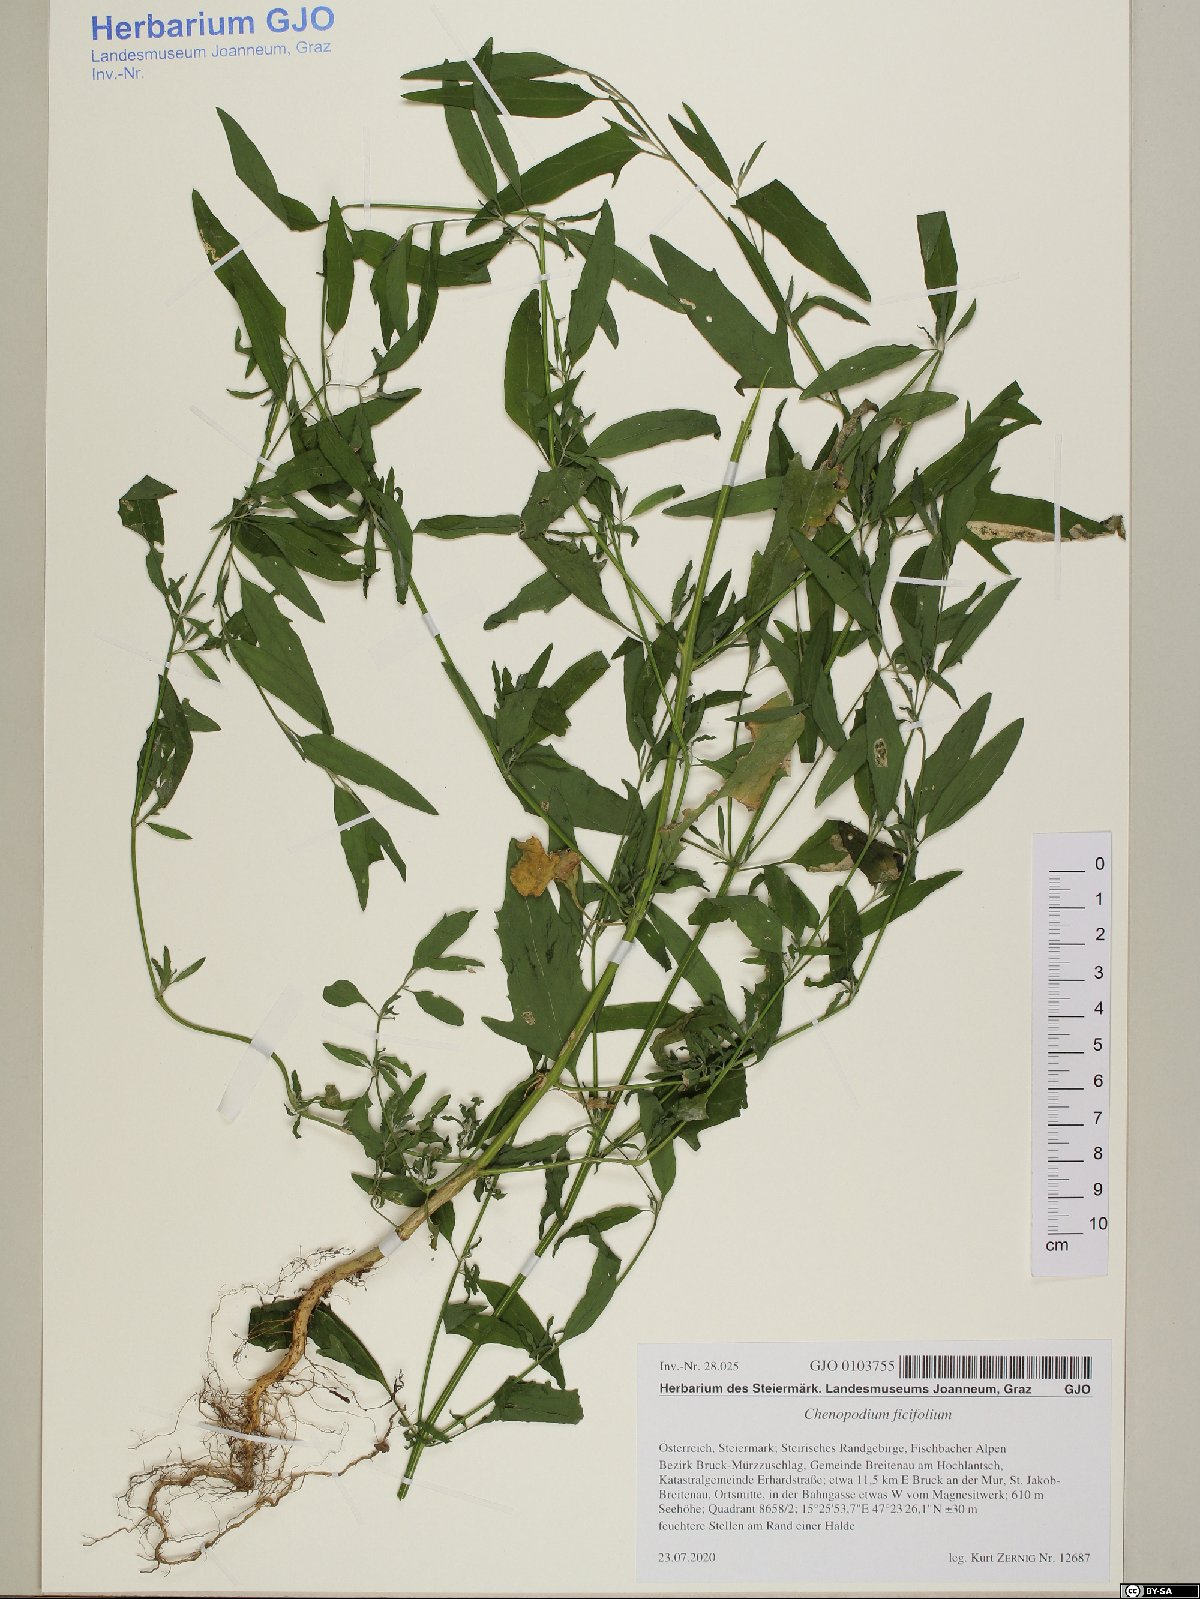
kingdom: Plantae
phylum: Tracheophyta
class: Magnoliopsida
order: Caryophyllales
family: Amaranthaceae
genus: Chenopodium
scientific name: Chenopodium ficifolium
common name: Fig-leaved goosefoot
